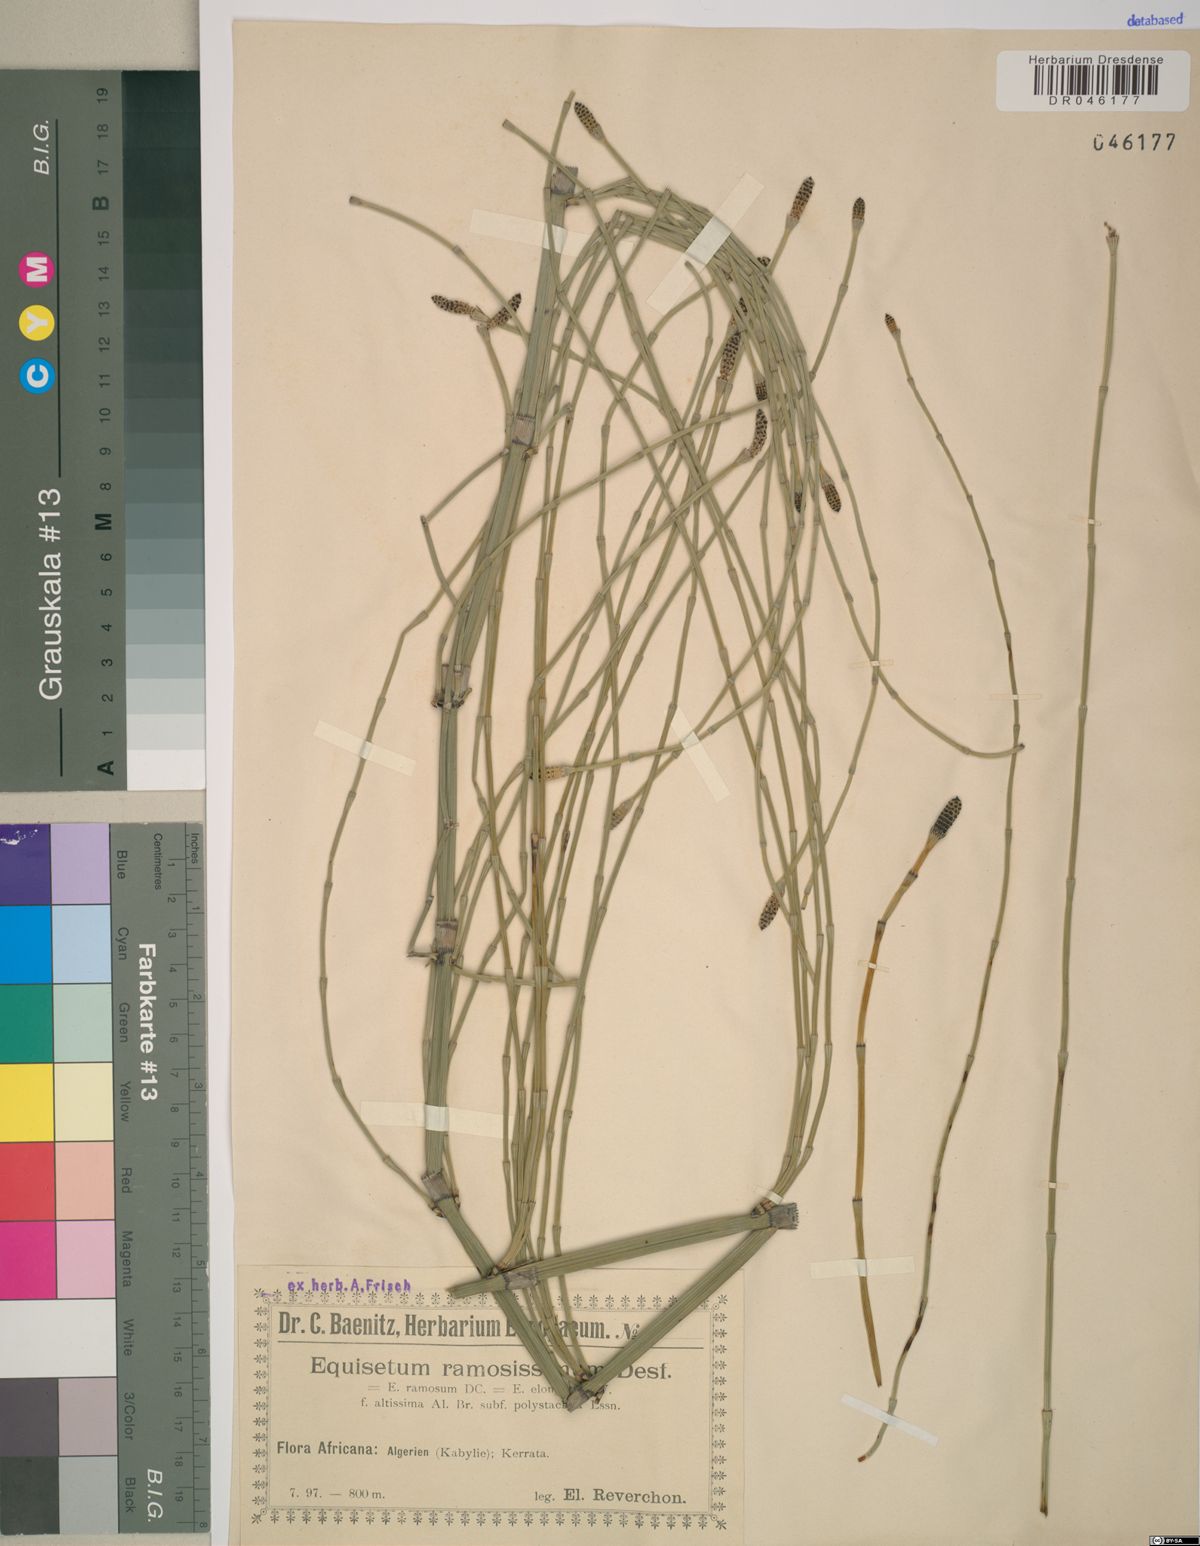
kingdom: Plantae
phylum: Tracheophyta
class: Polypodiopsida
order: Equisetales
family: Equisetaceae
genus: Equisetum
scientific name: Equisetum ramosissimum
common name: Branched horsetail
